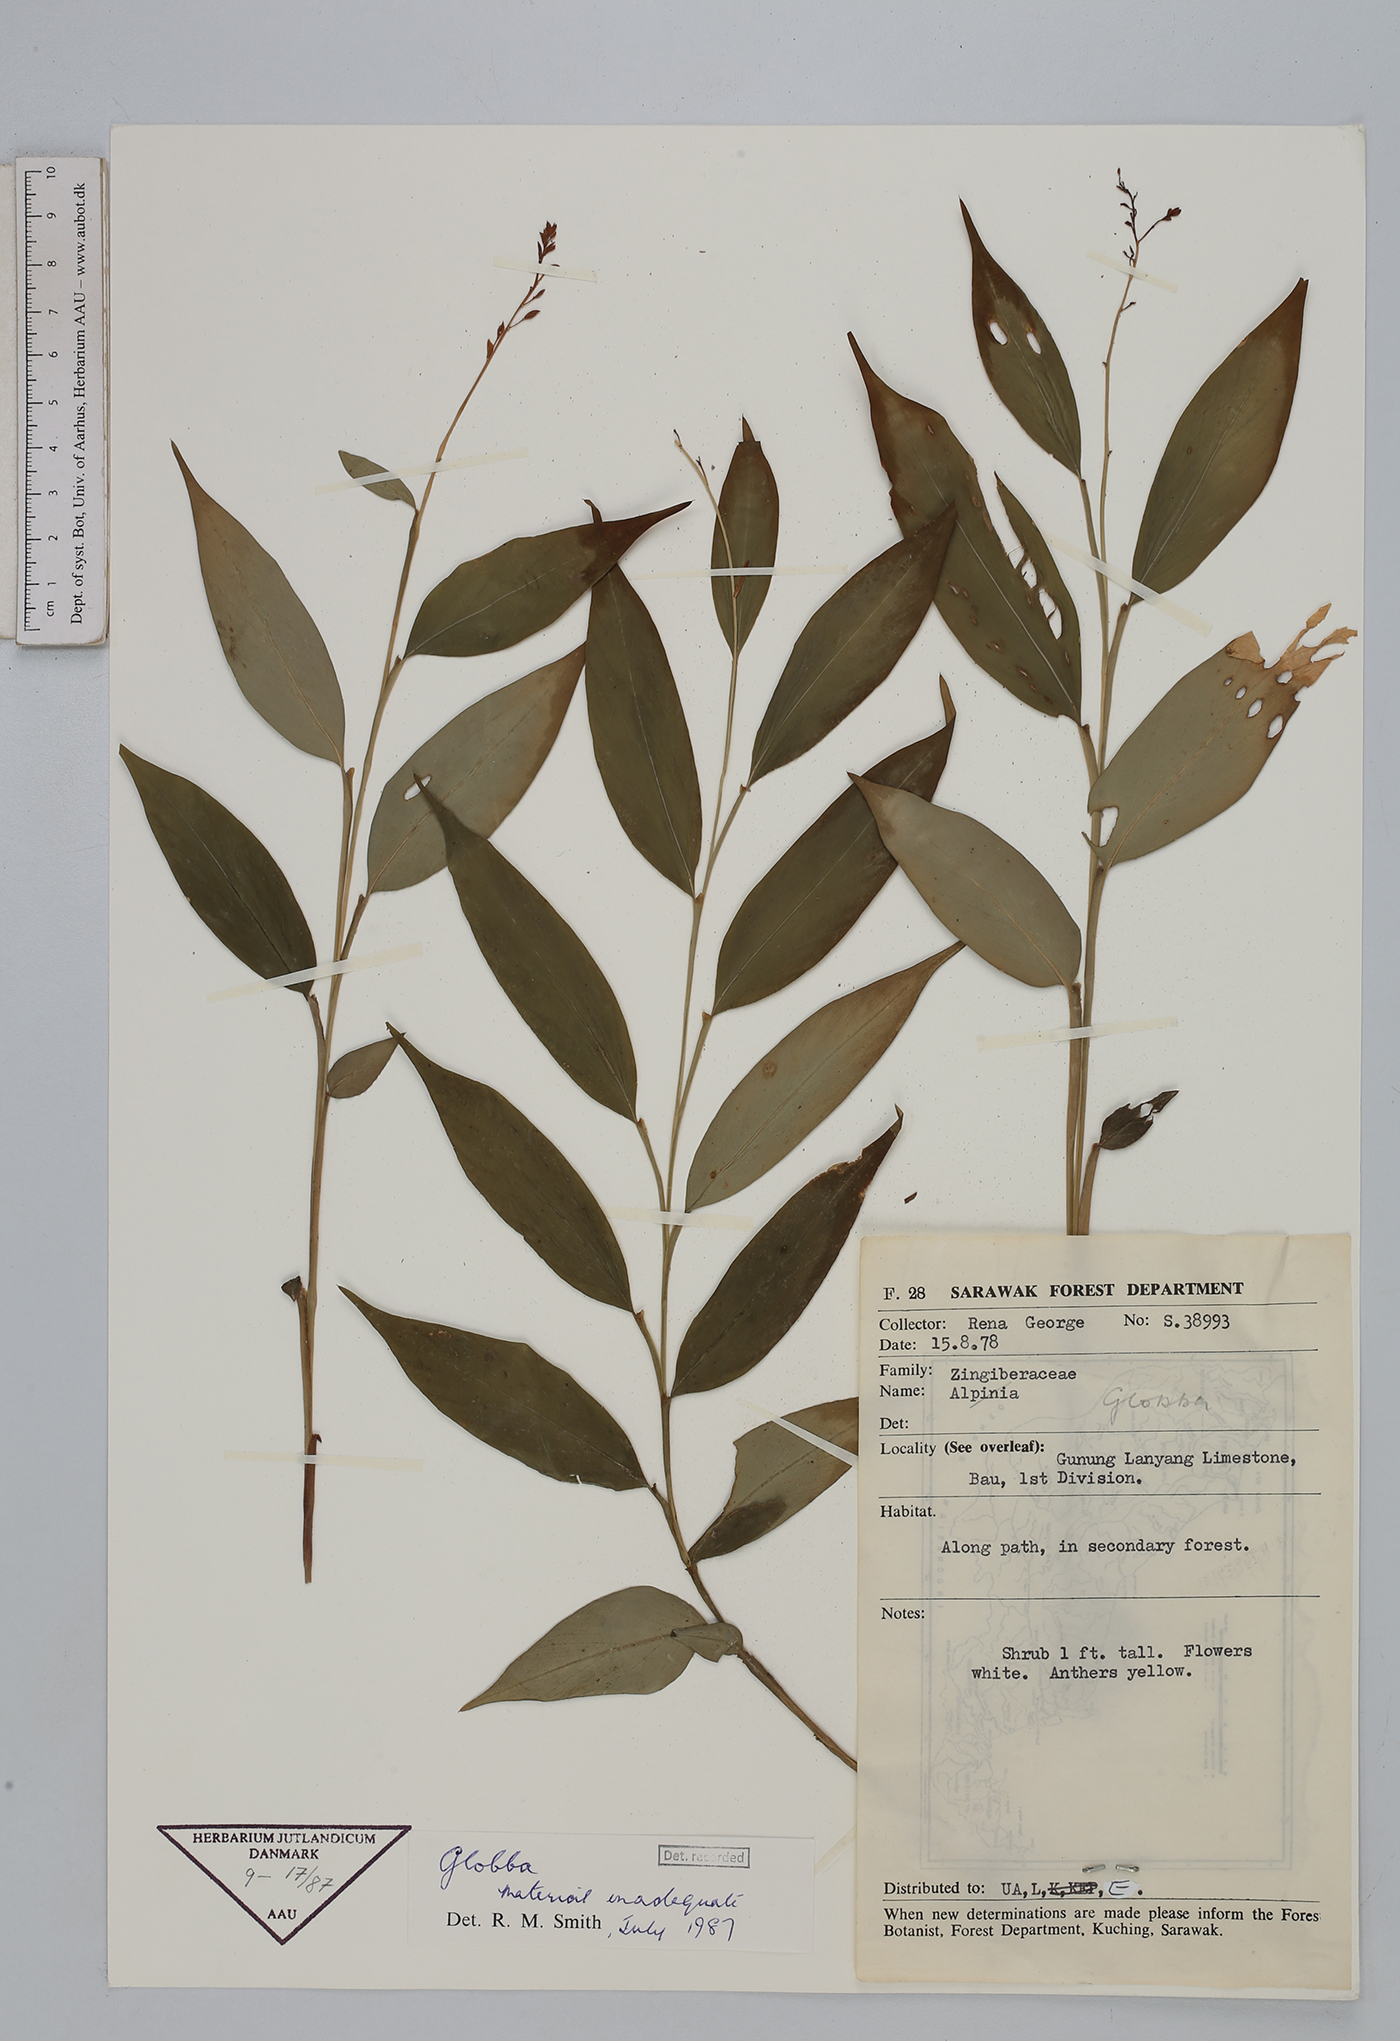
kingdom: Plantae
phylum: Tracheophyta
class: Liliopsida
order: Zingiberales
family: Zingiberaceae
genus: Globba
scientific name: Globba
